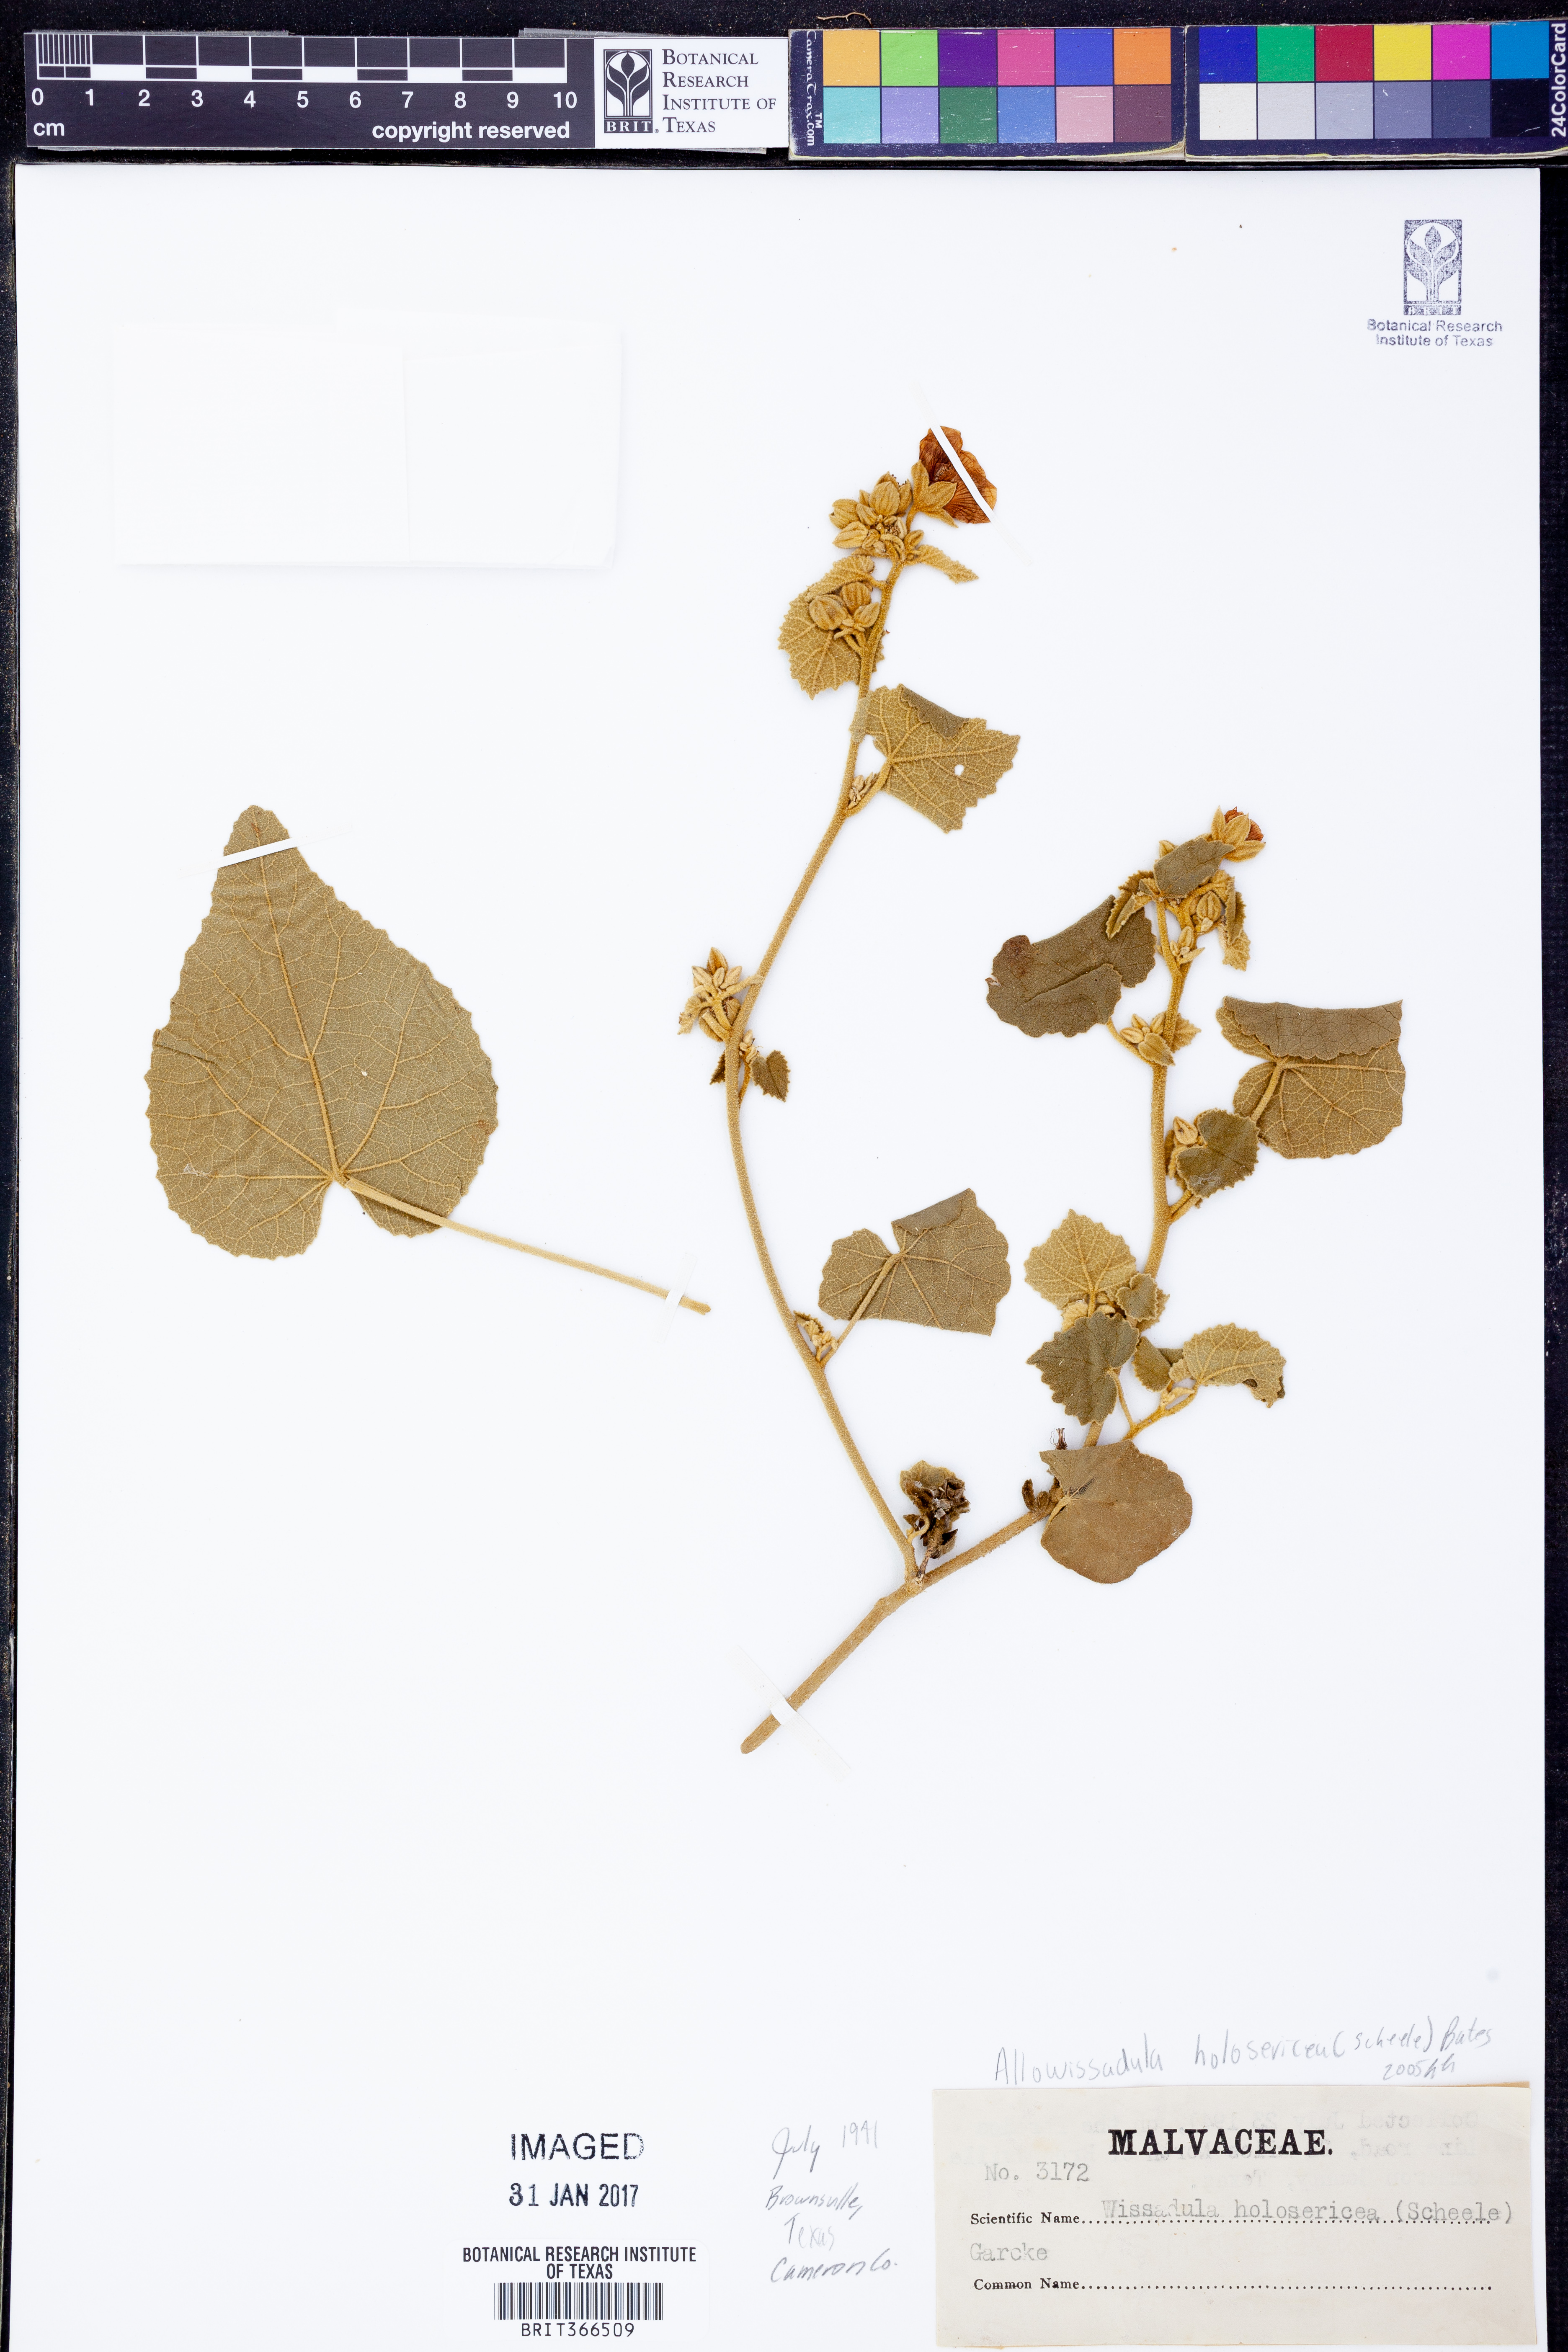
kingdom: Plantae
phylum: Tracheophyta
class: Magnoliopsida
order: Malvales
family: Malvaceae
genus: Allowissadula
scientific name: Allowissadula holosericea
